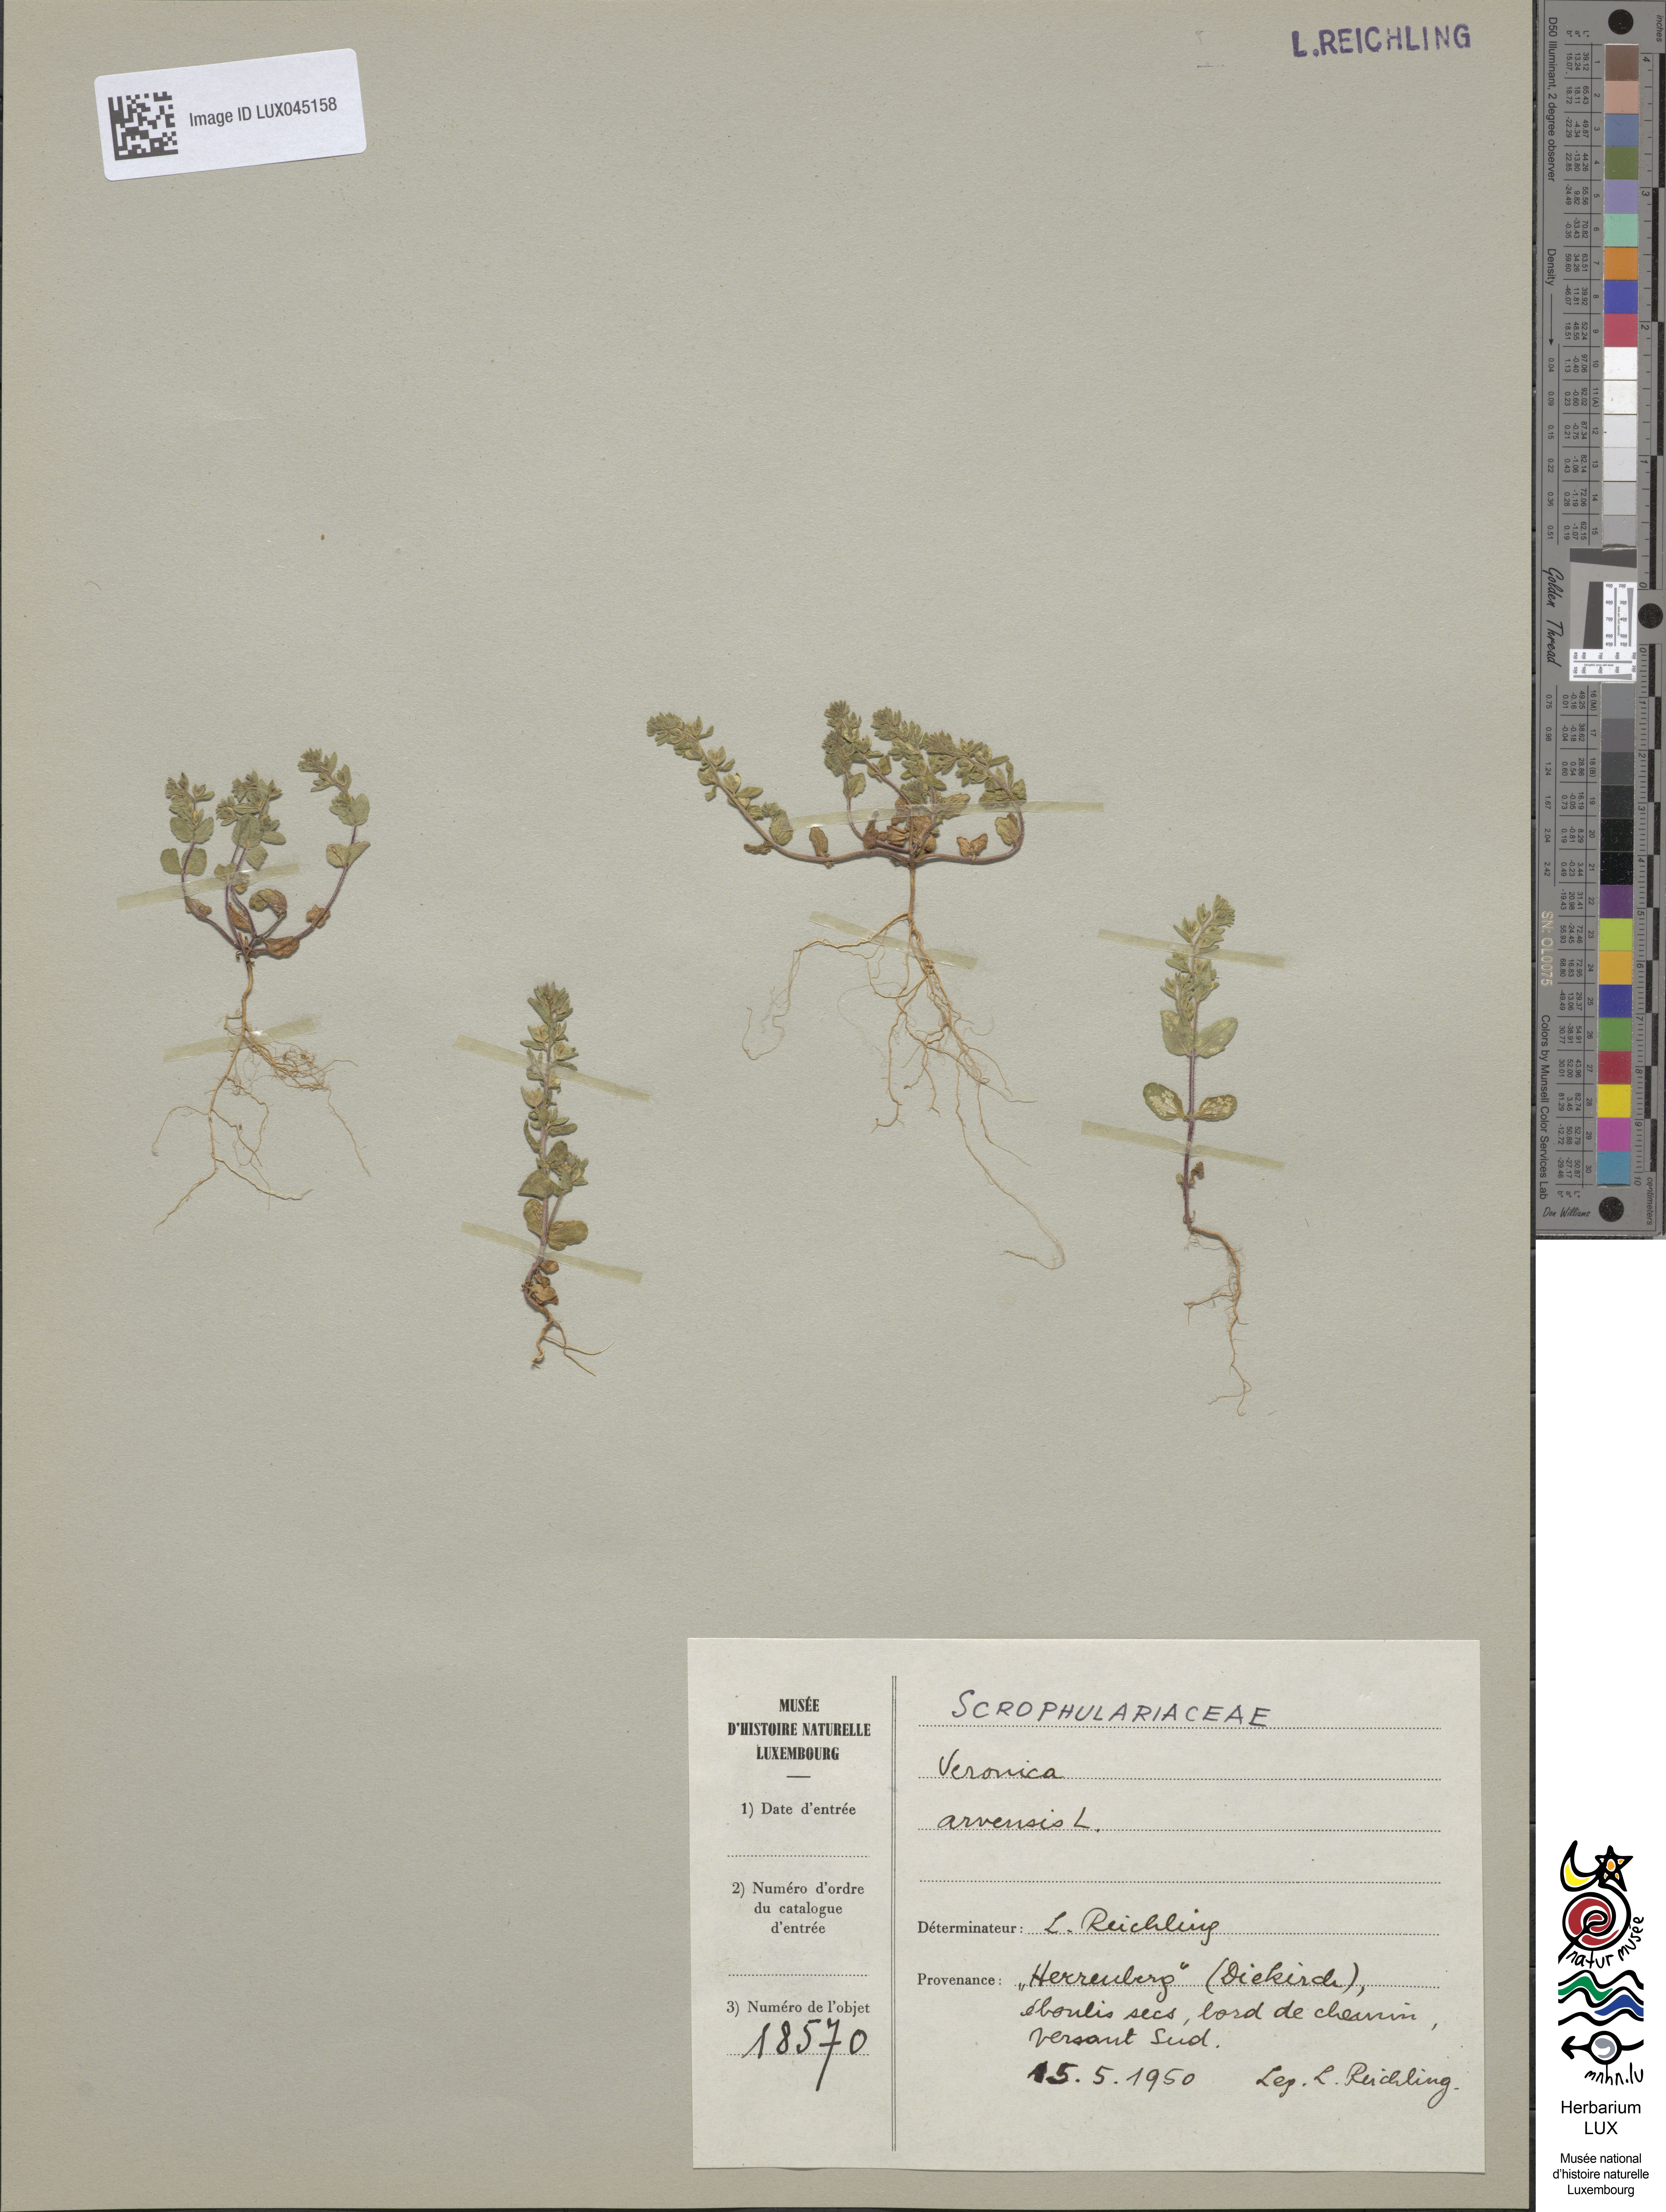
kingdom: Plantae
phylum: Tracheophyta
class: Magnoliopsida
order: Lamiales
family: Plantaginaceae
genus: Veronica
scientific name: Veronica arvensis
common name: Corn speedwell
